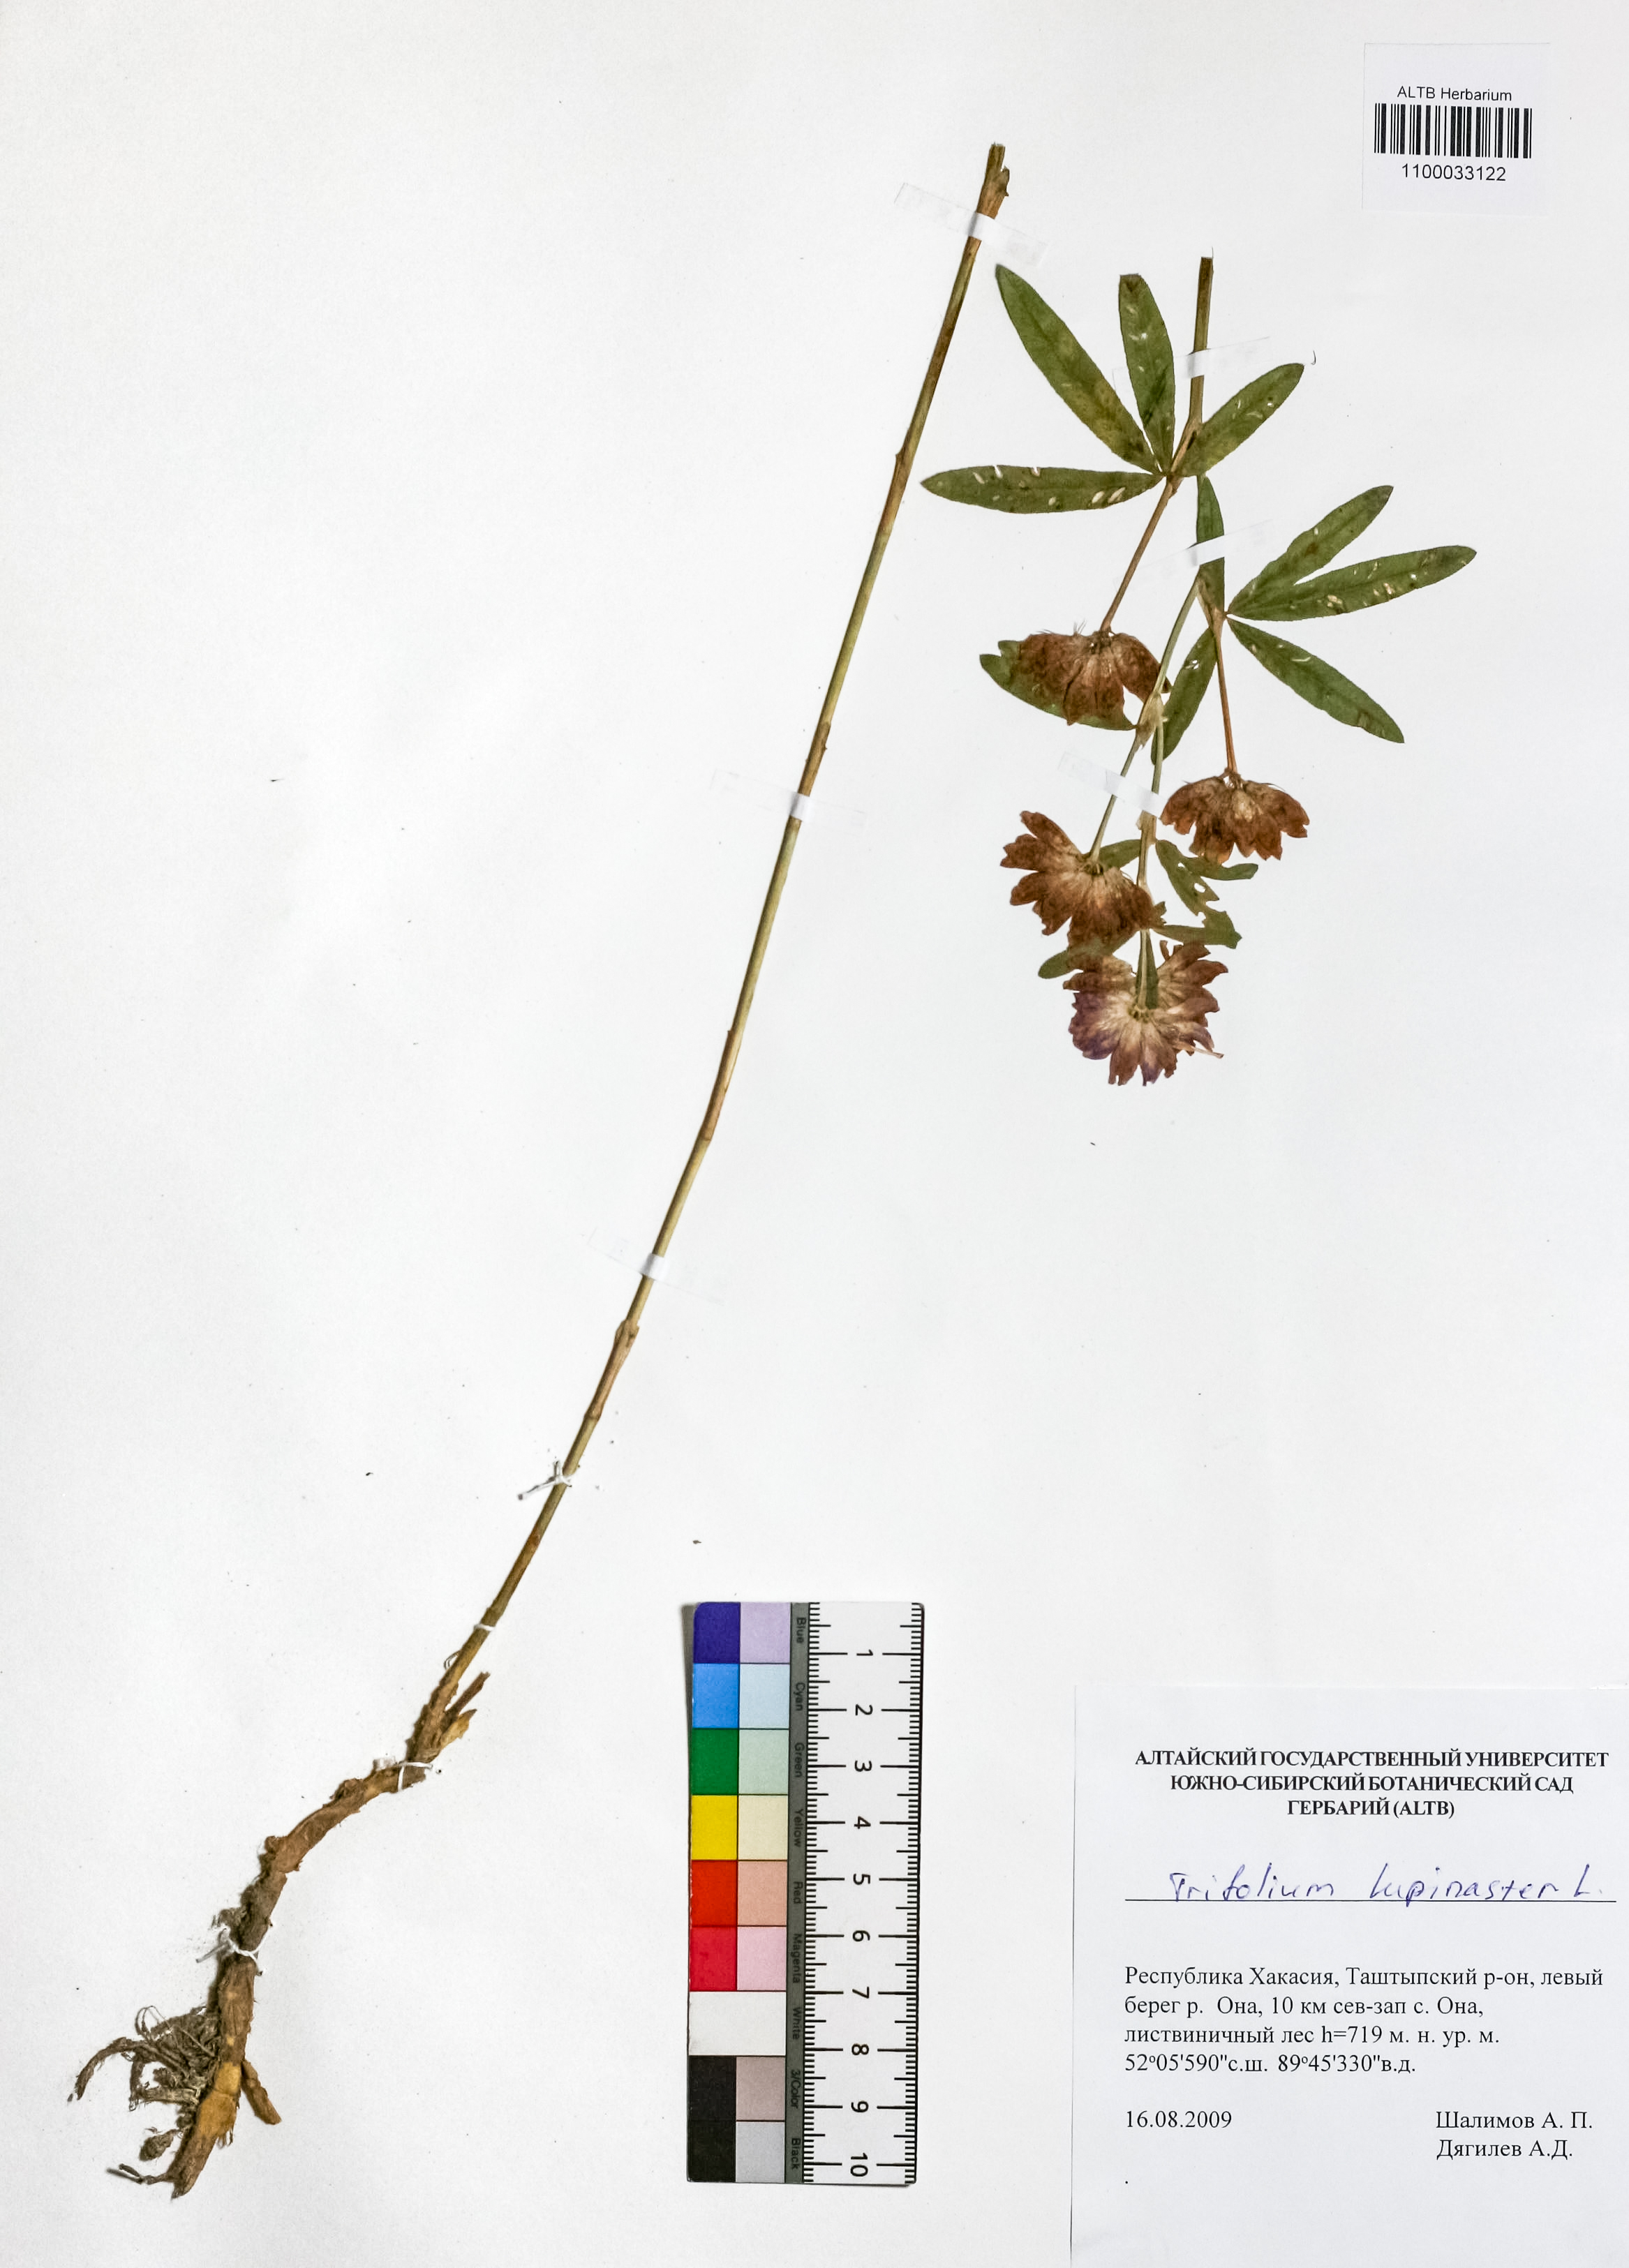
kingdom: Plantae
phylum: Tracheophyta
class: Magnoliopsida
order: Fabales
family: Fabaceae
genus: Trifolium
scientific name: Trifolium lupinaster
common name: Lupine clover
